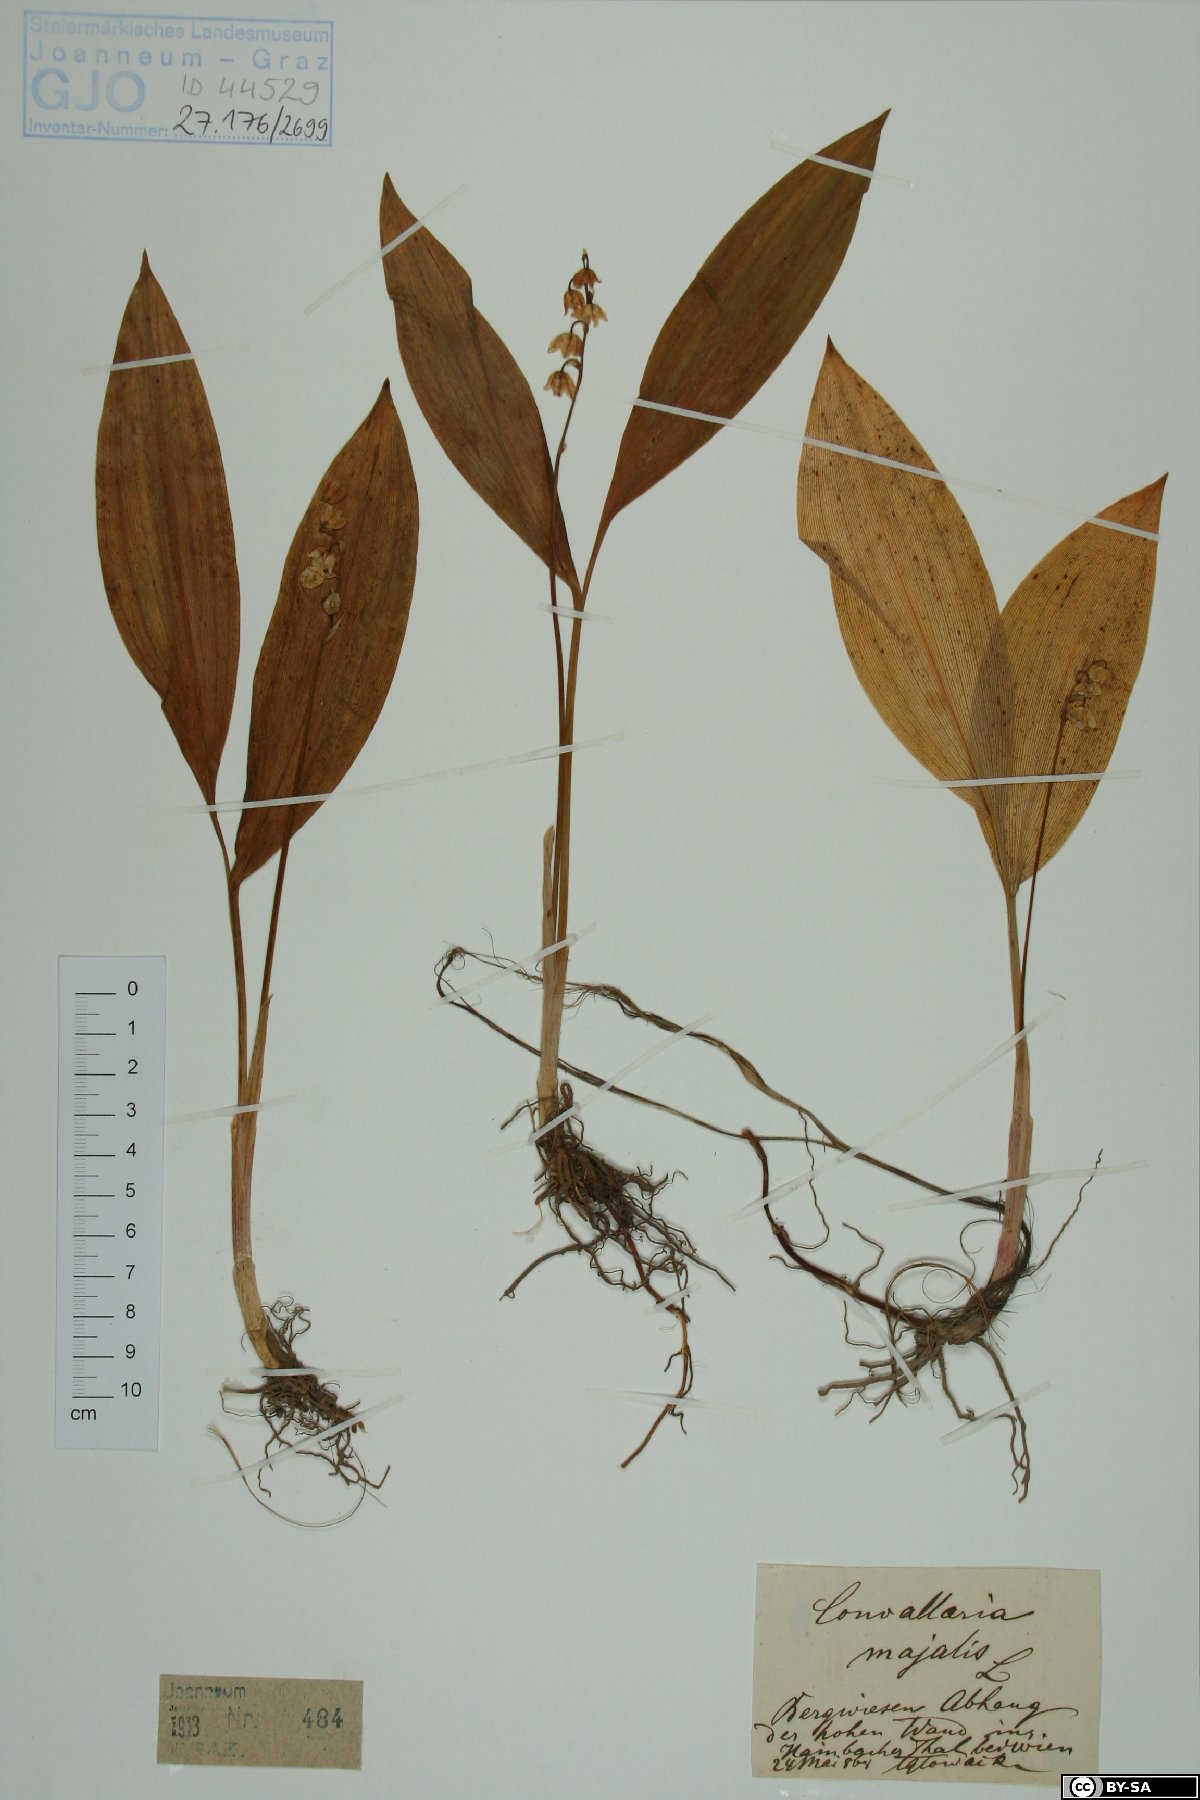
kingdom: Plantae
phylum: Tracheophyta
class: Liliopsida
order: Asparagales
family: Asparagaceae
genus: Convallaria
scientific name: Convallaria majalis
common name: Lily-of-the-valley
